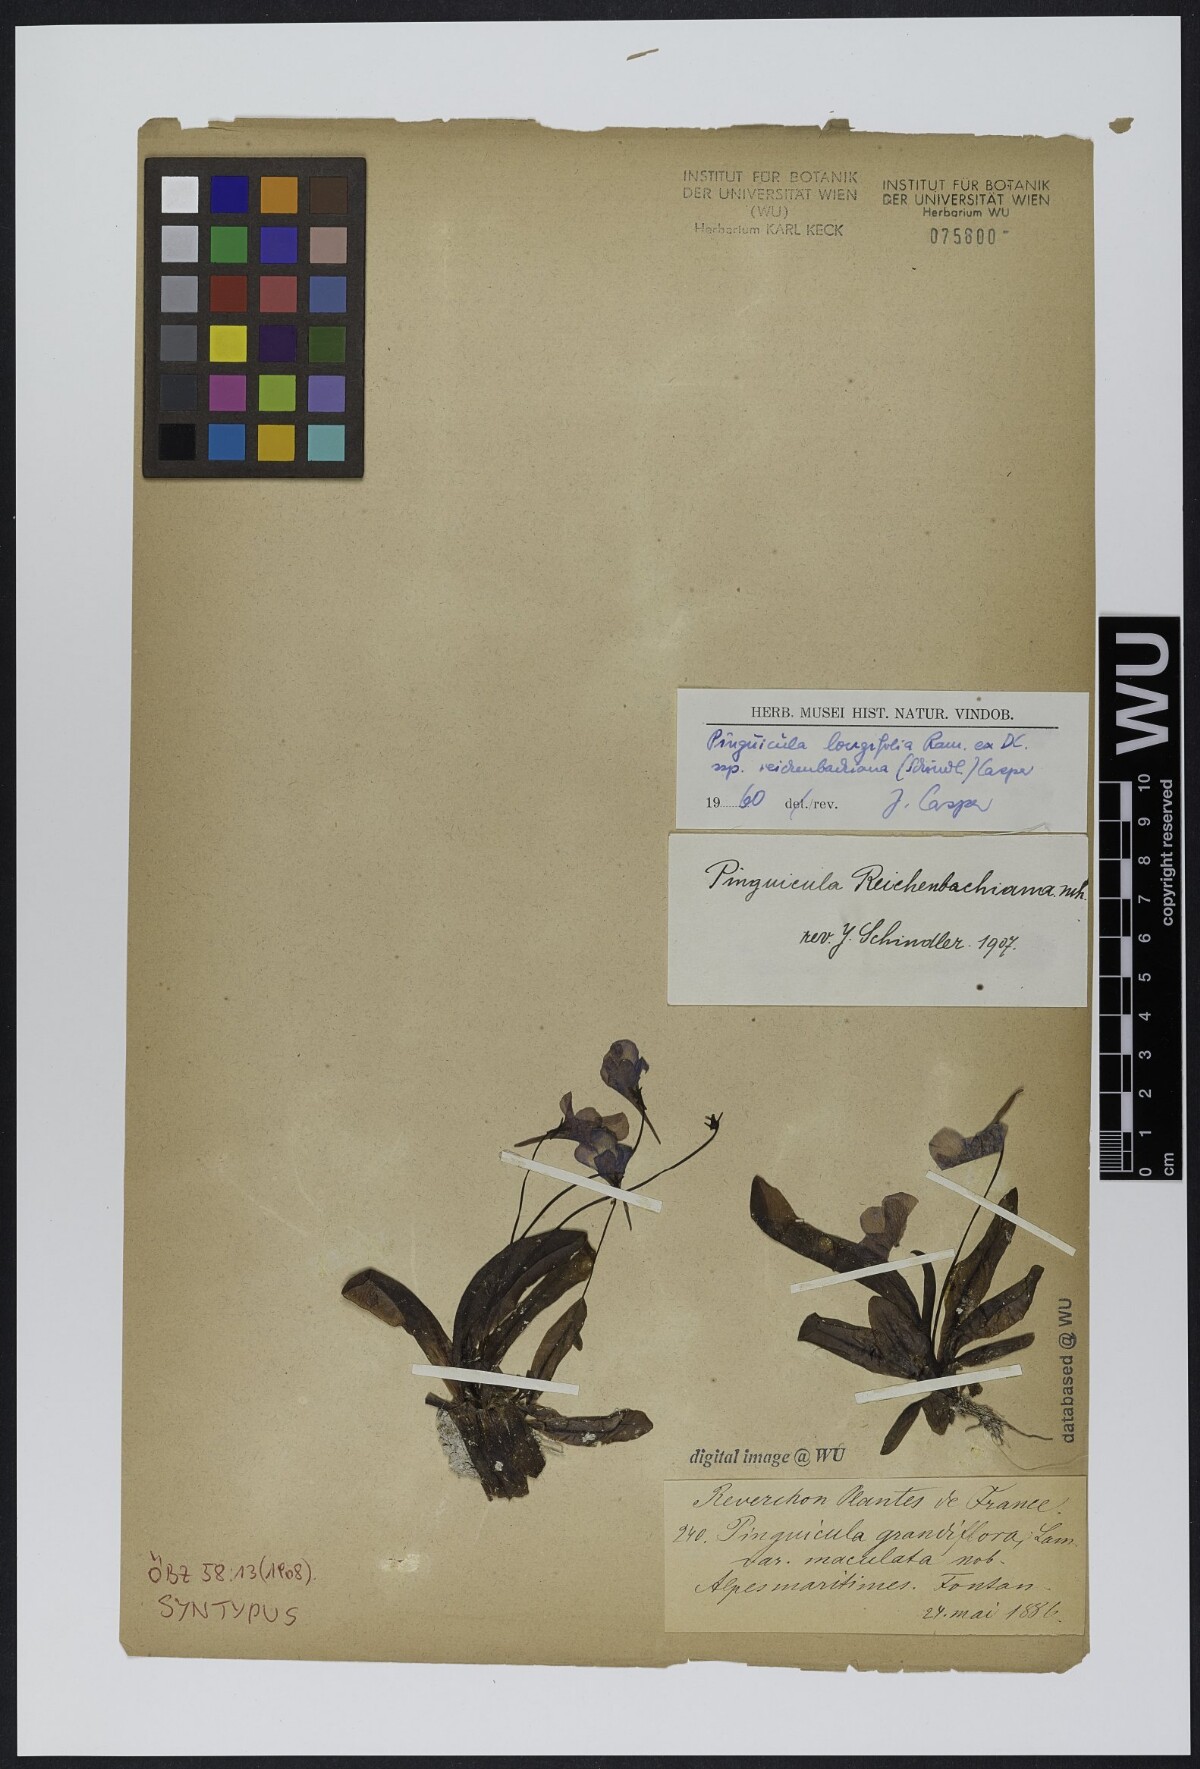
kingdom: Plantae
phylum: Tracheophyta
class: Magnoliopsida
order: Lamiales
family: Lentibulariaceae
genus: Pinguicula
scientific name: Pinguicula longifolia
